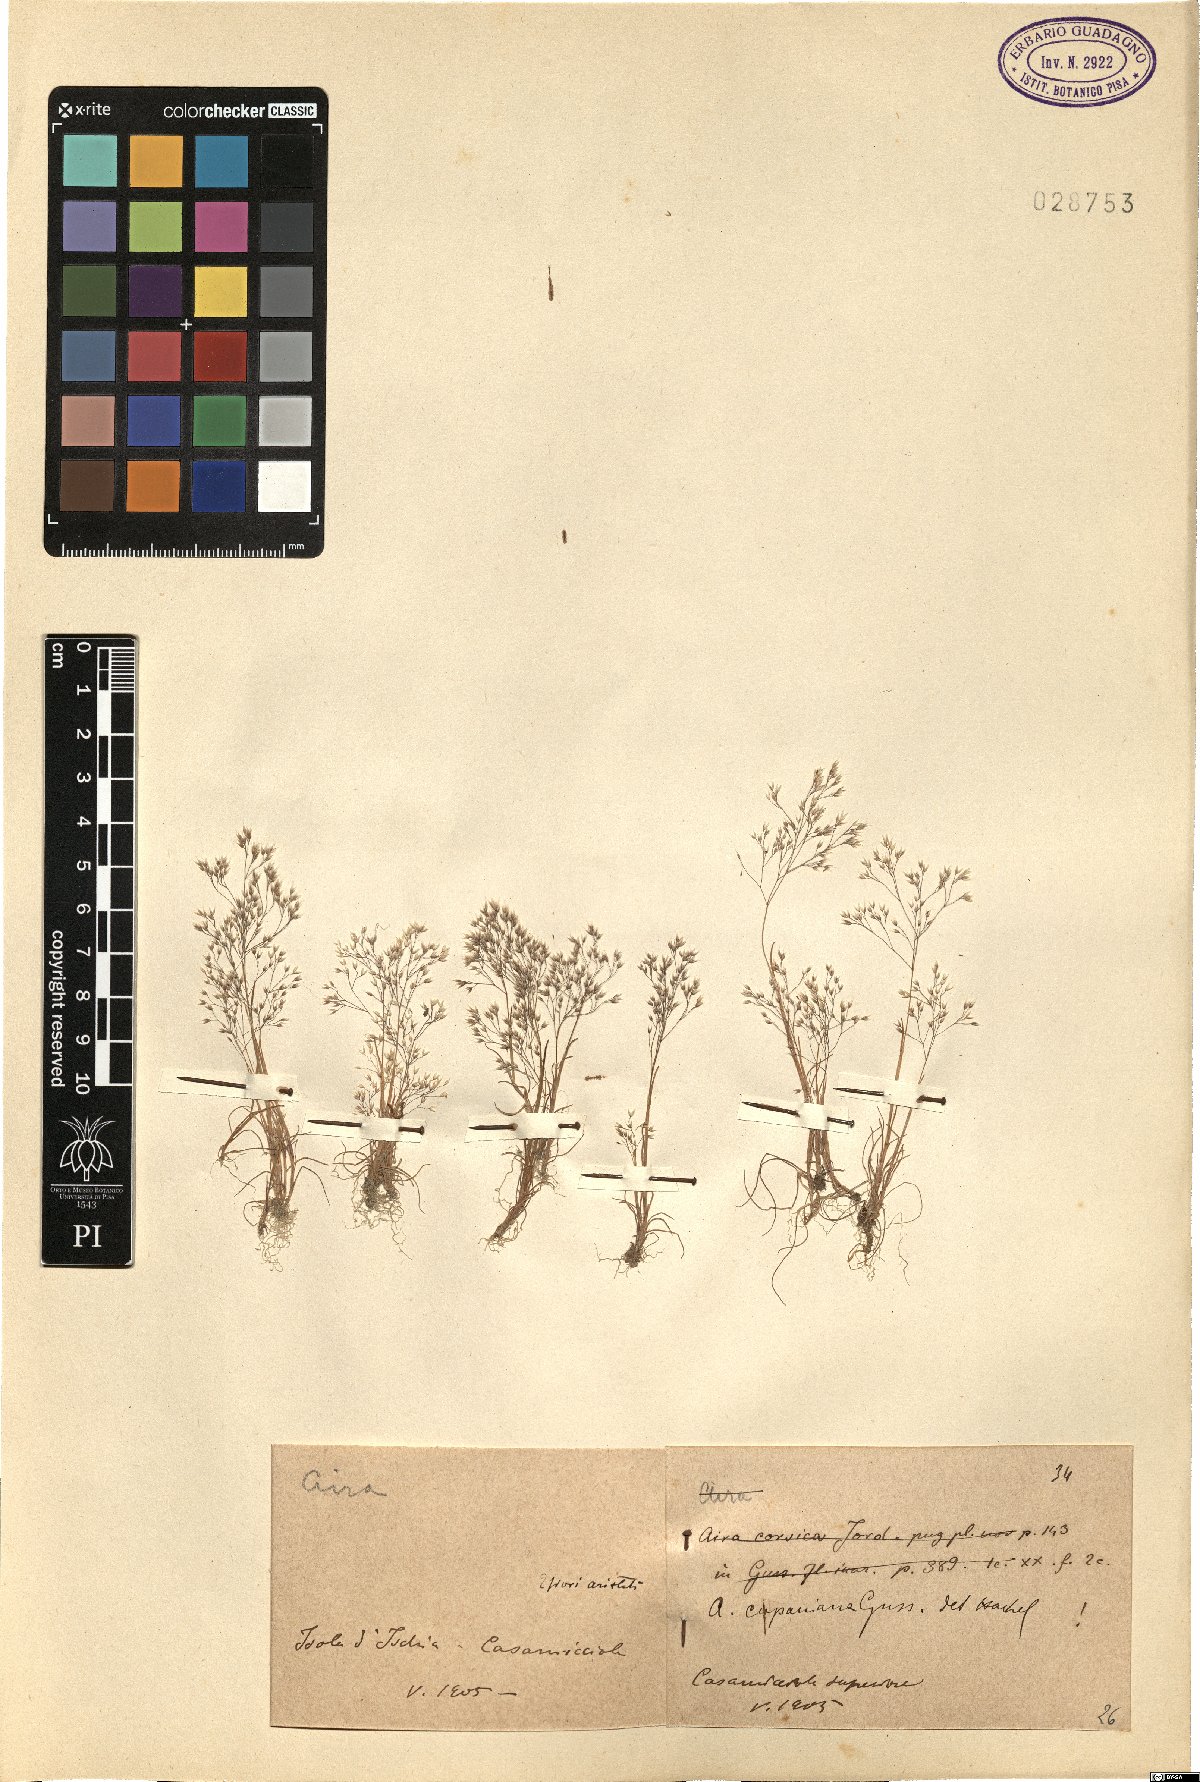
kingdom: Plantae
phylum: Tracheophyta
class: Liliopsida
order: Poales
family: Poaceae
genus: Aira
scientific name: Aira cupaniana
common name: Silver hairgrass
